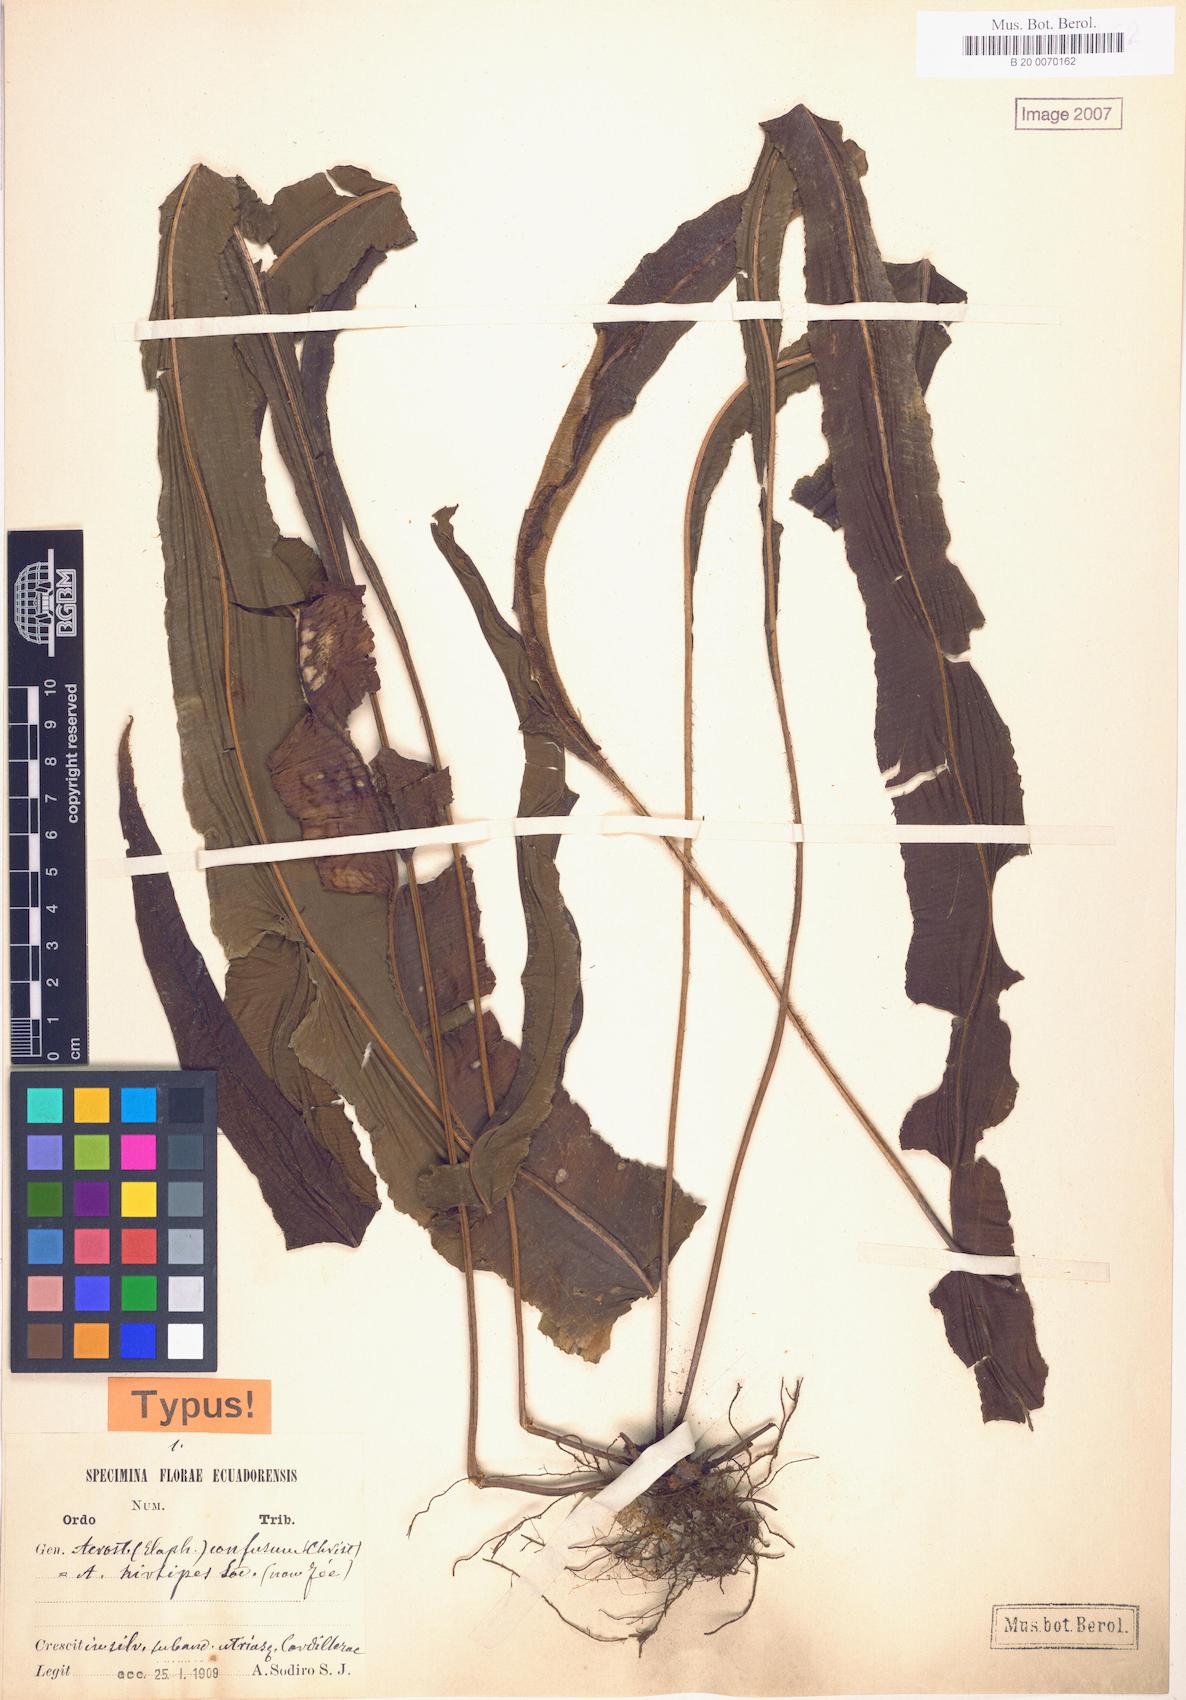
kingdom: Plantae
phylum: Tracheophyta
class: Polypodiopsida
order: Polypodiales
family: Dryopteridaceae
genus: Elaphoglossum
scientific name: Elaphoglossum confusum
